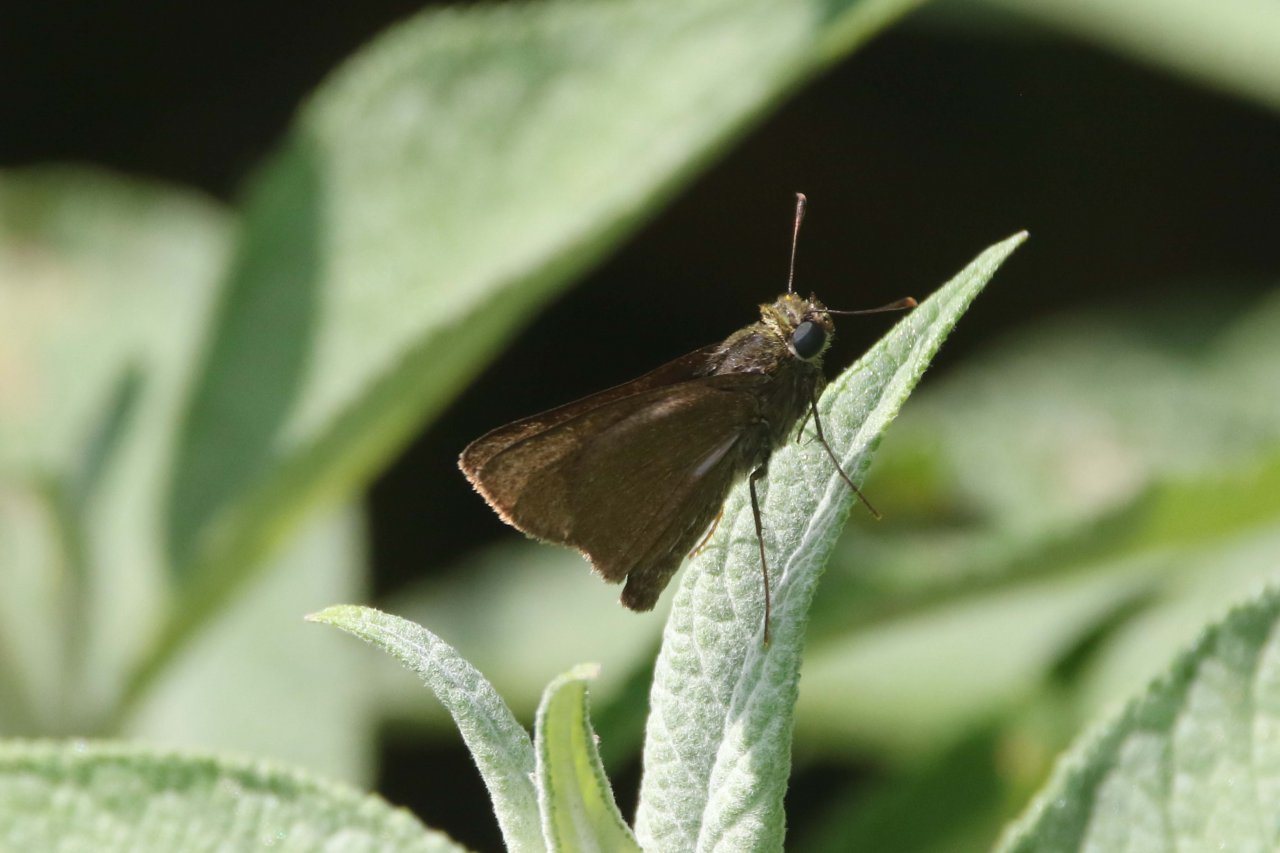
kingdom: Animalia
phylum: Arthropoda
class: Insecta
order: Lepidoptera
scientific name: Lepidoptera
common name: Butterflies
